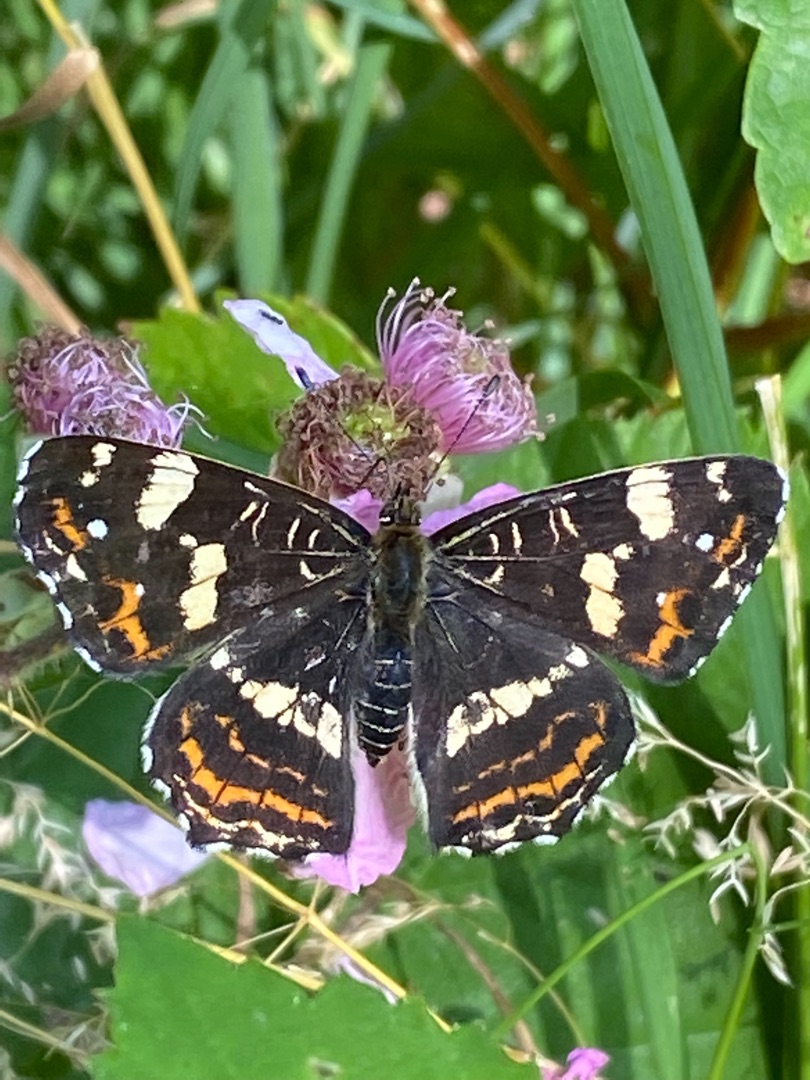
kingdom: Animalia
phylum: Arthropoda
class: Insecta
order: Lepidoptera
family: Nymphalidae
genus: Araschnia
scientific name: Araschnia levana
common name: Nældesommerfugl
